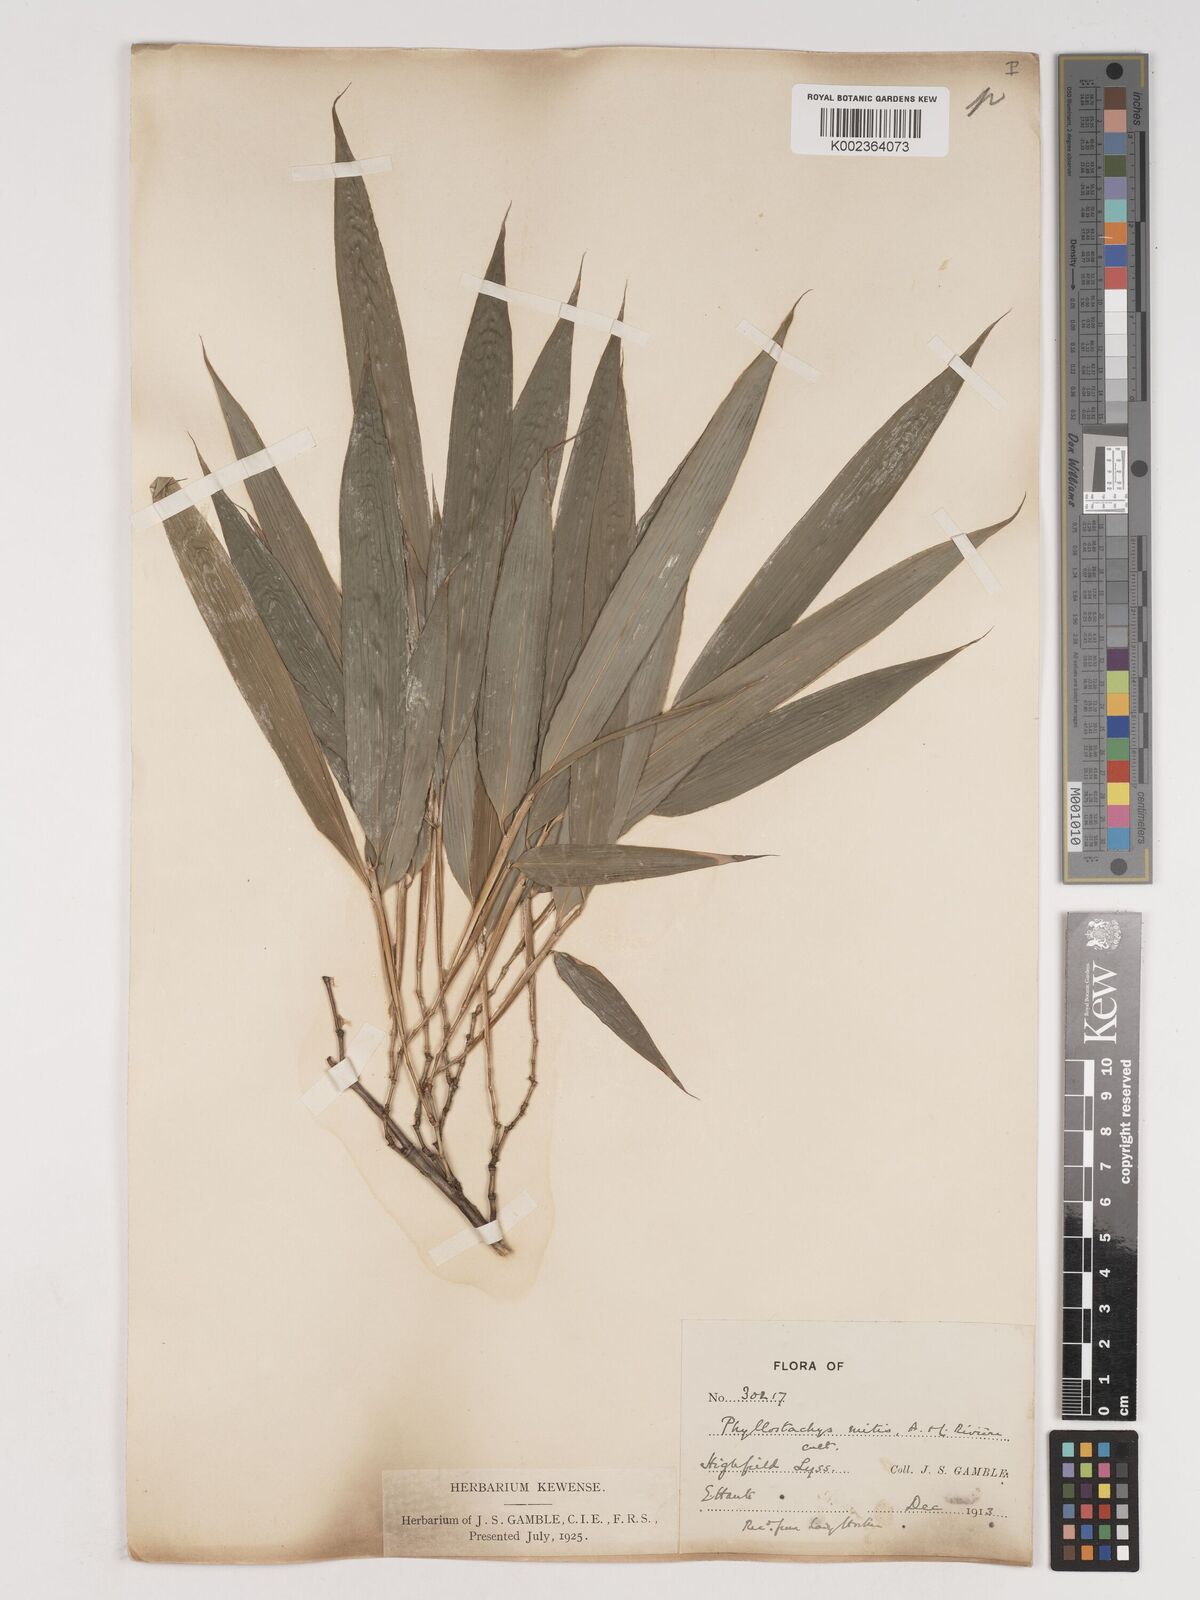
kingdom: Plantae
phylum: Tracheophyta
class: Liliopsida
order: Poales
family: Poaceae
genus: Phyllostachys
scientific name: Phyllostachys sulphurea
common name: Sulphur bamboo
